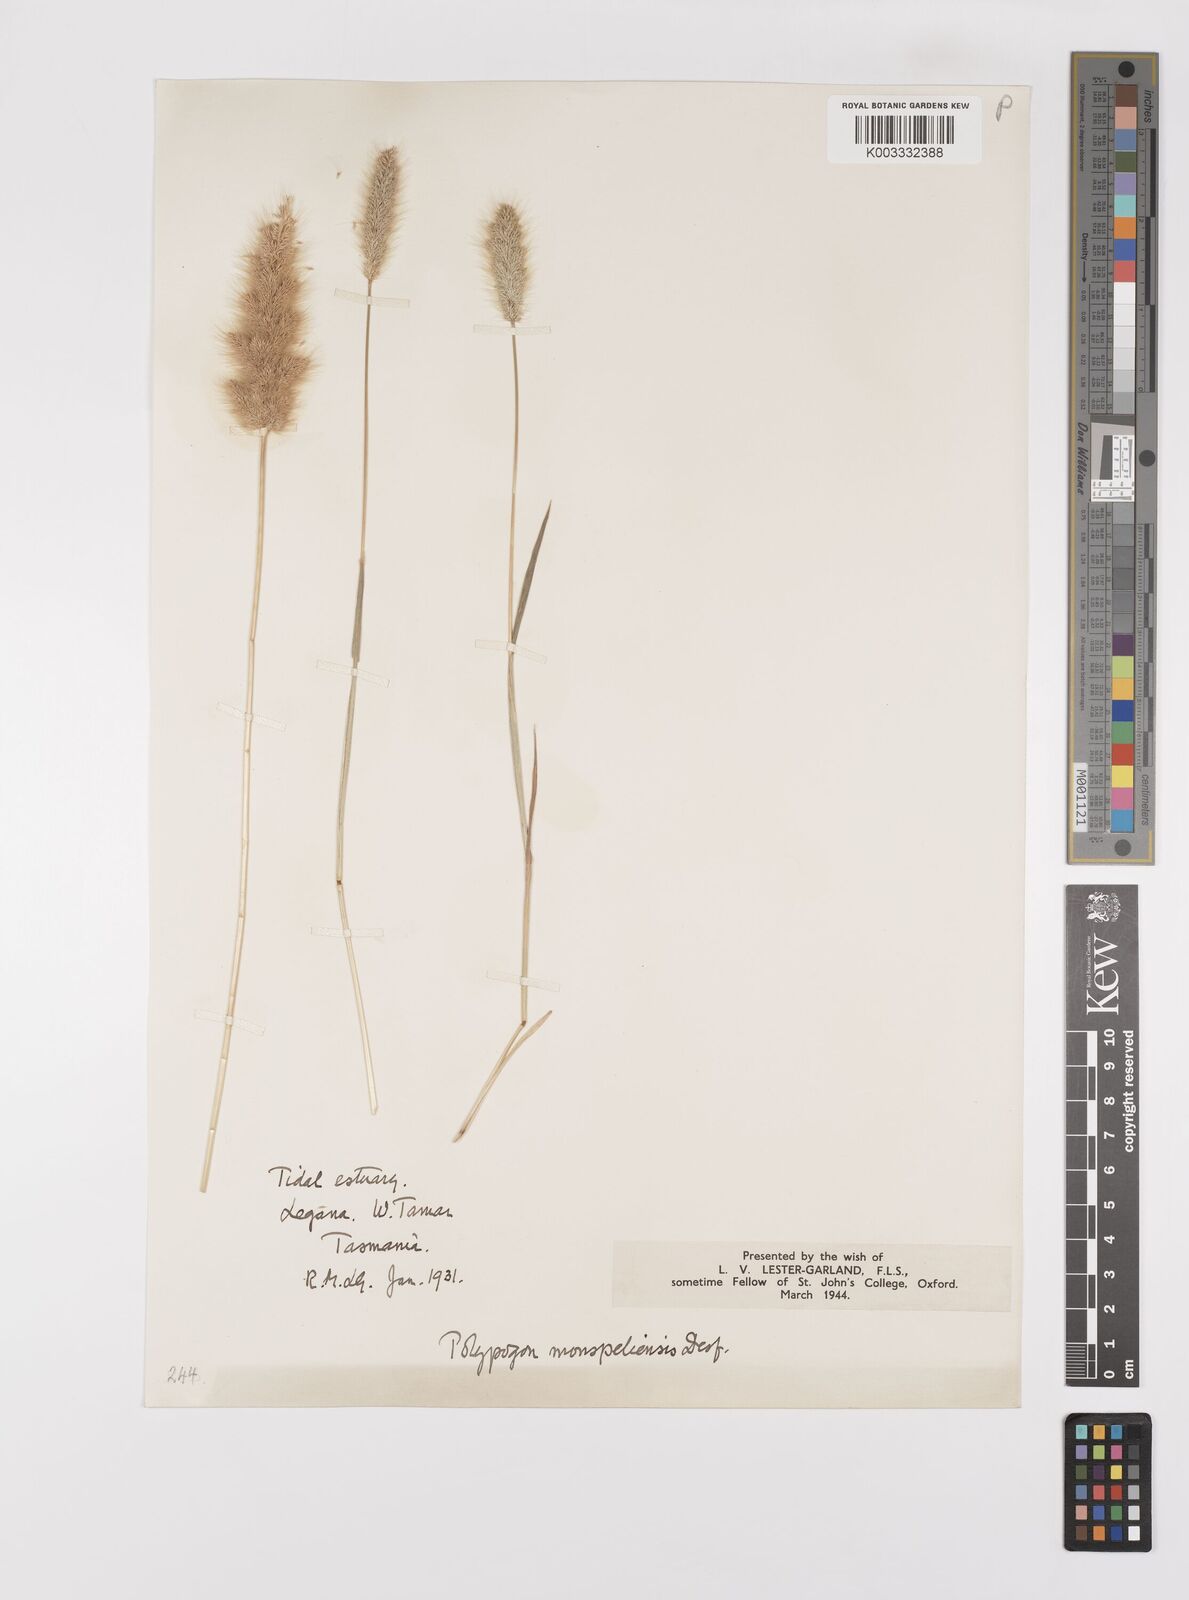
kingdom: Plantae
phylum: Tracheophyta
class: Liliopsida
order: Poales
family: Poaceae
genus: Polypogon
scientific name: Polypogon monspeliensis
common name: Annual rabbitsfoot grass
